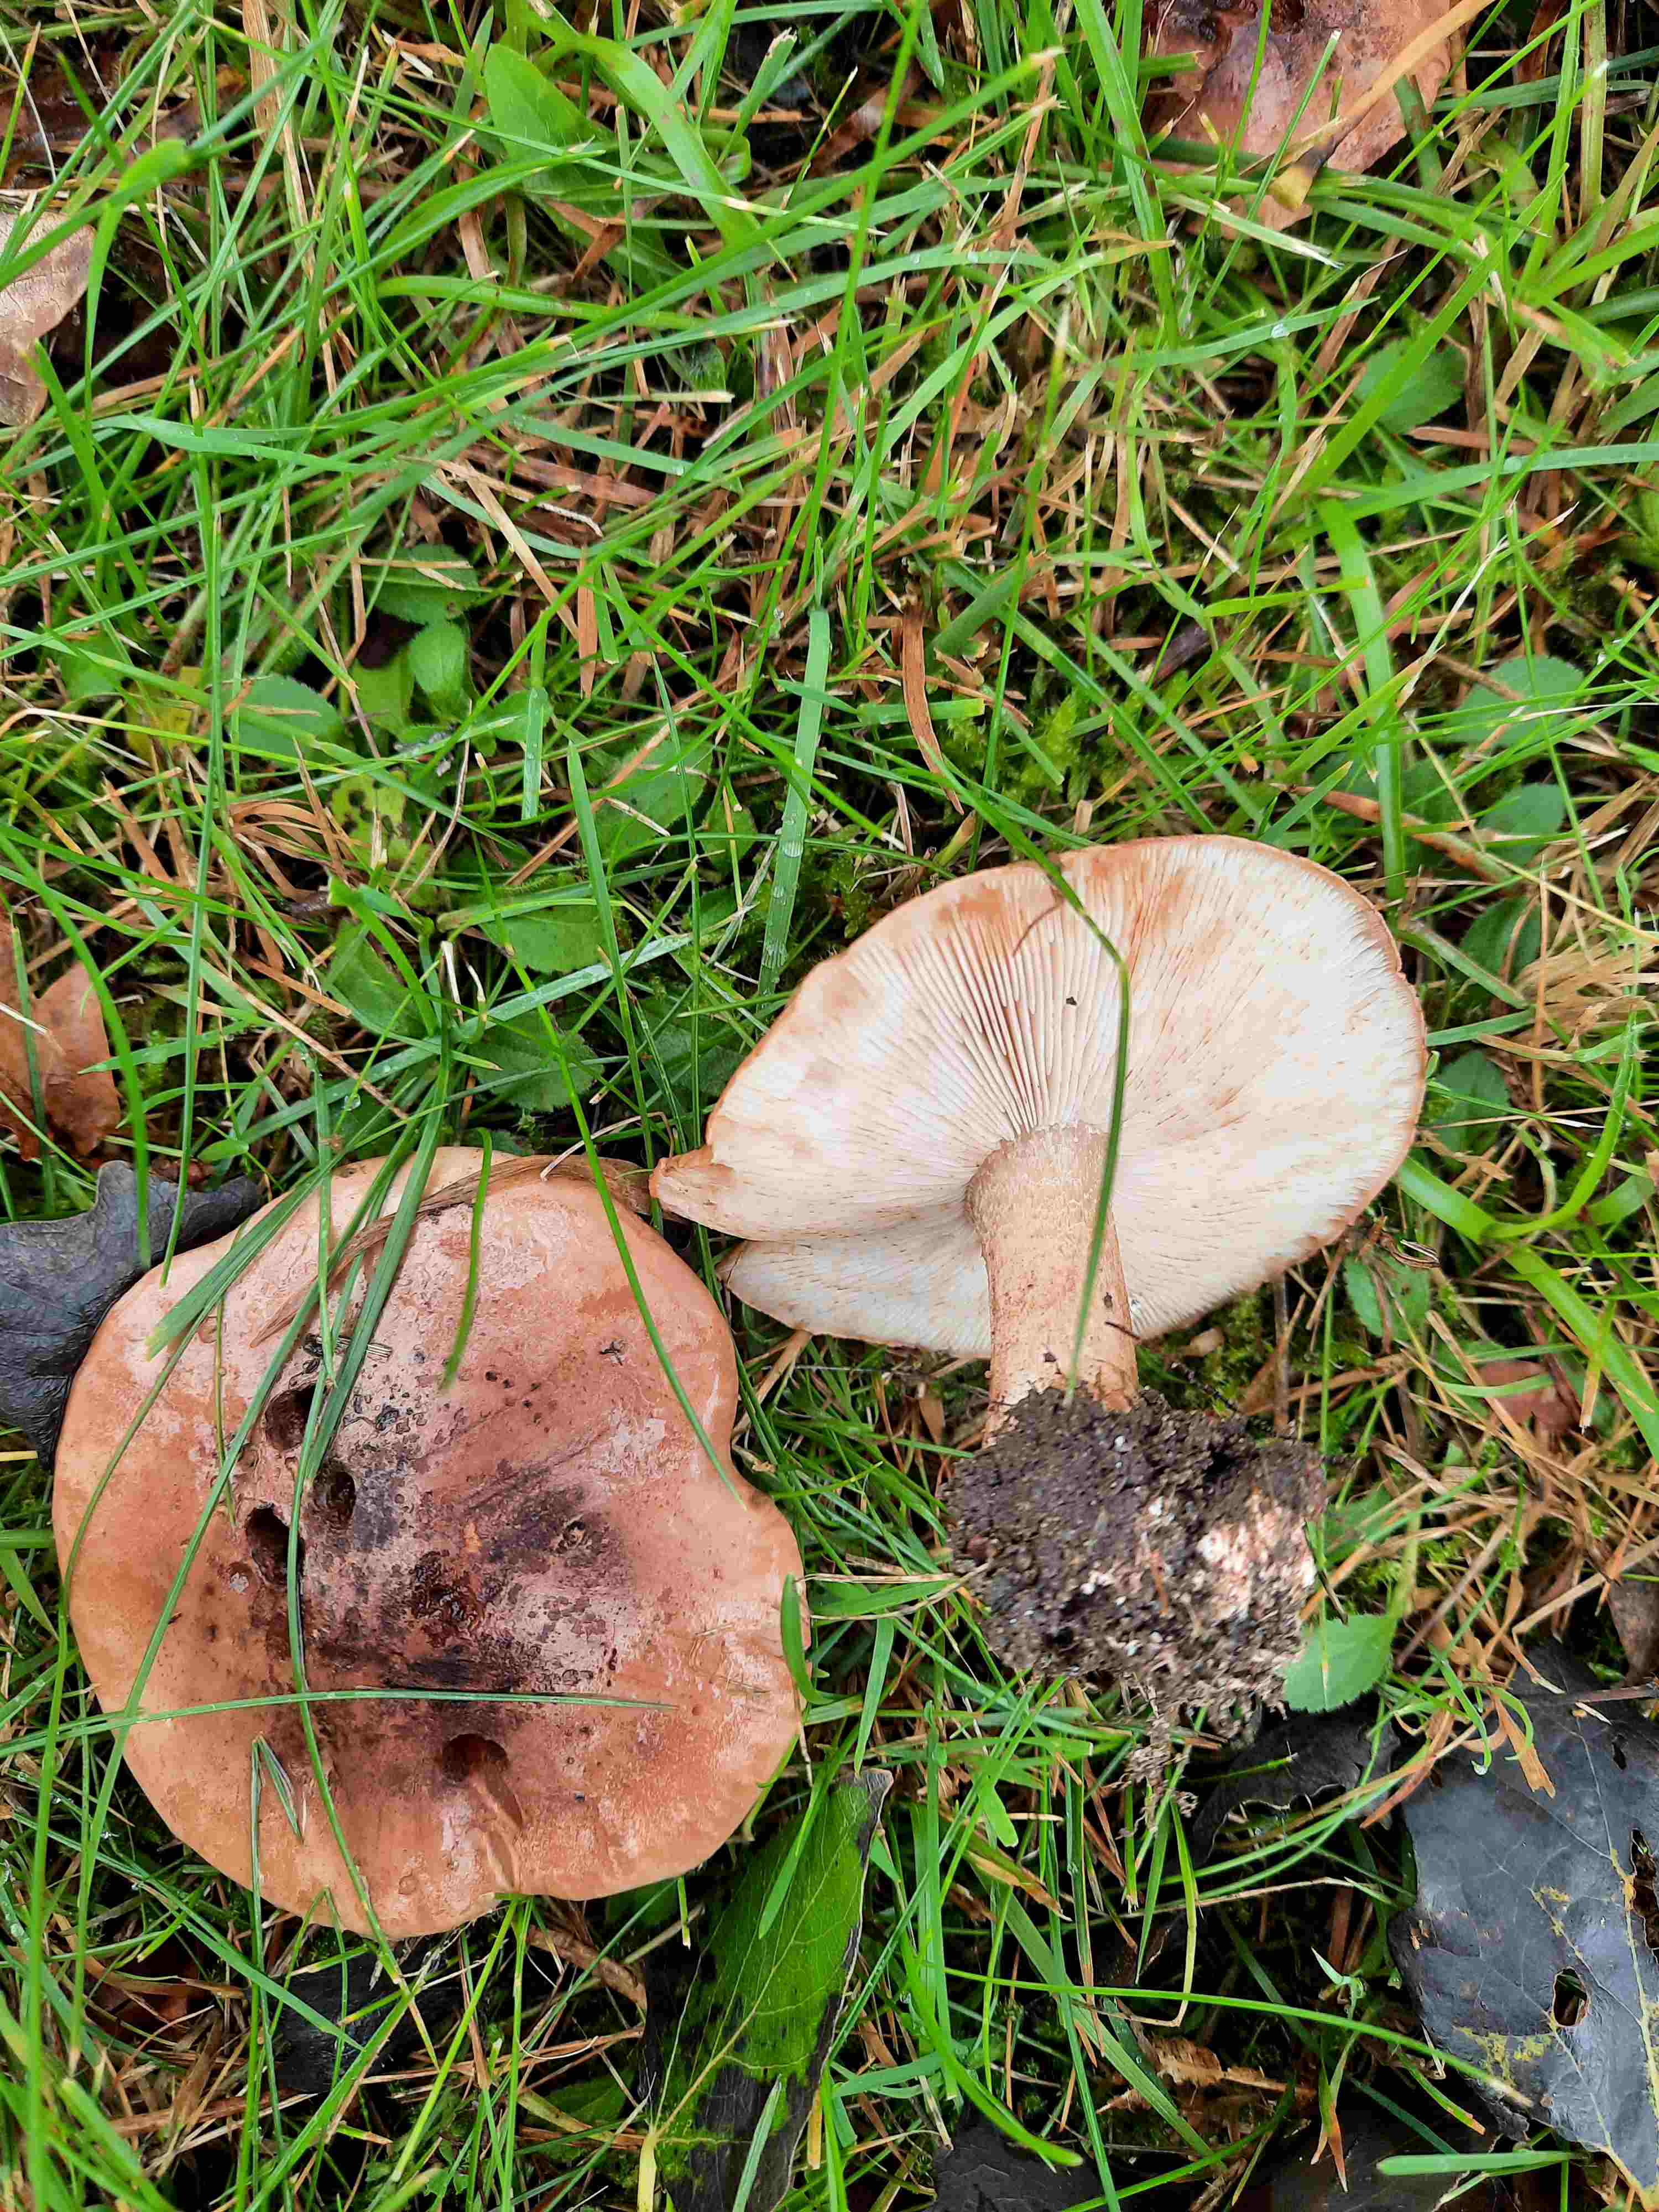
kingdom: Fungi
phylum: Basidiomycota
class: Agaricomycetes
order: Agaricales
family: Tricholomataceae
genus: Tricholoma
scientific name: Tricholoma populinum
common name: poppel-ridderhat
